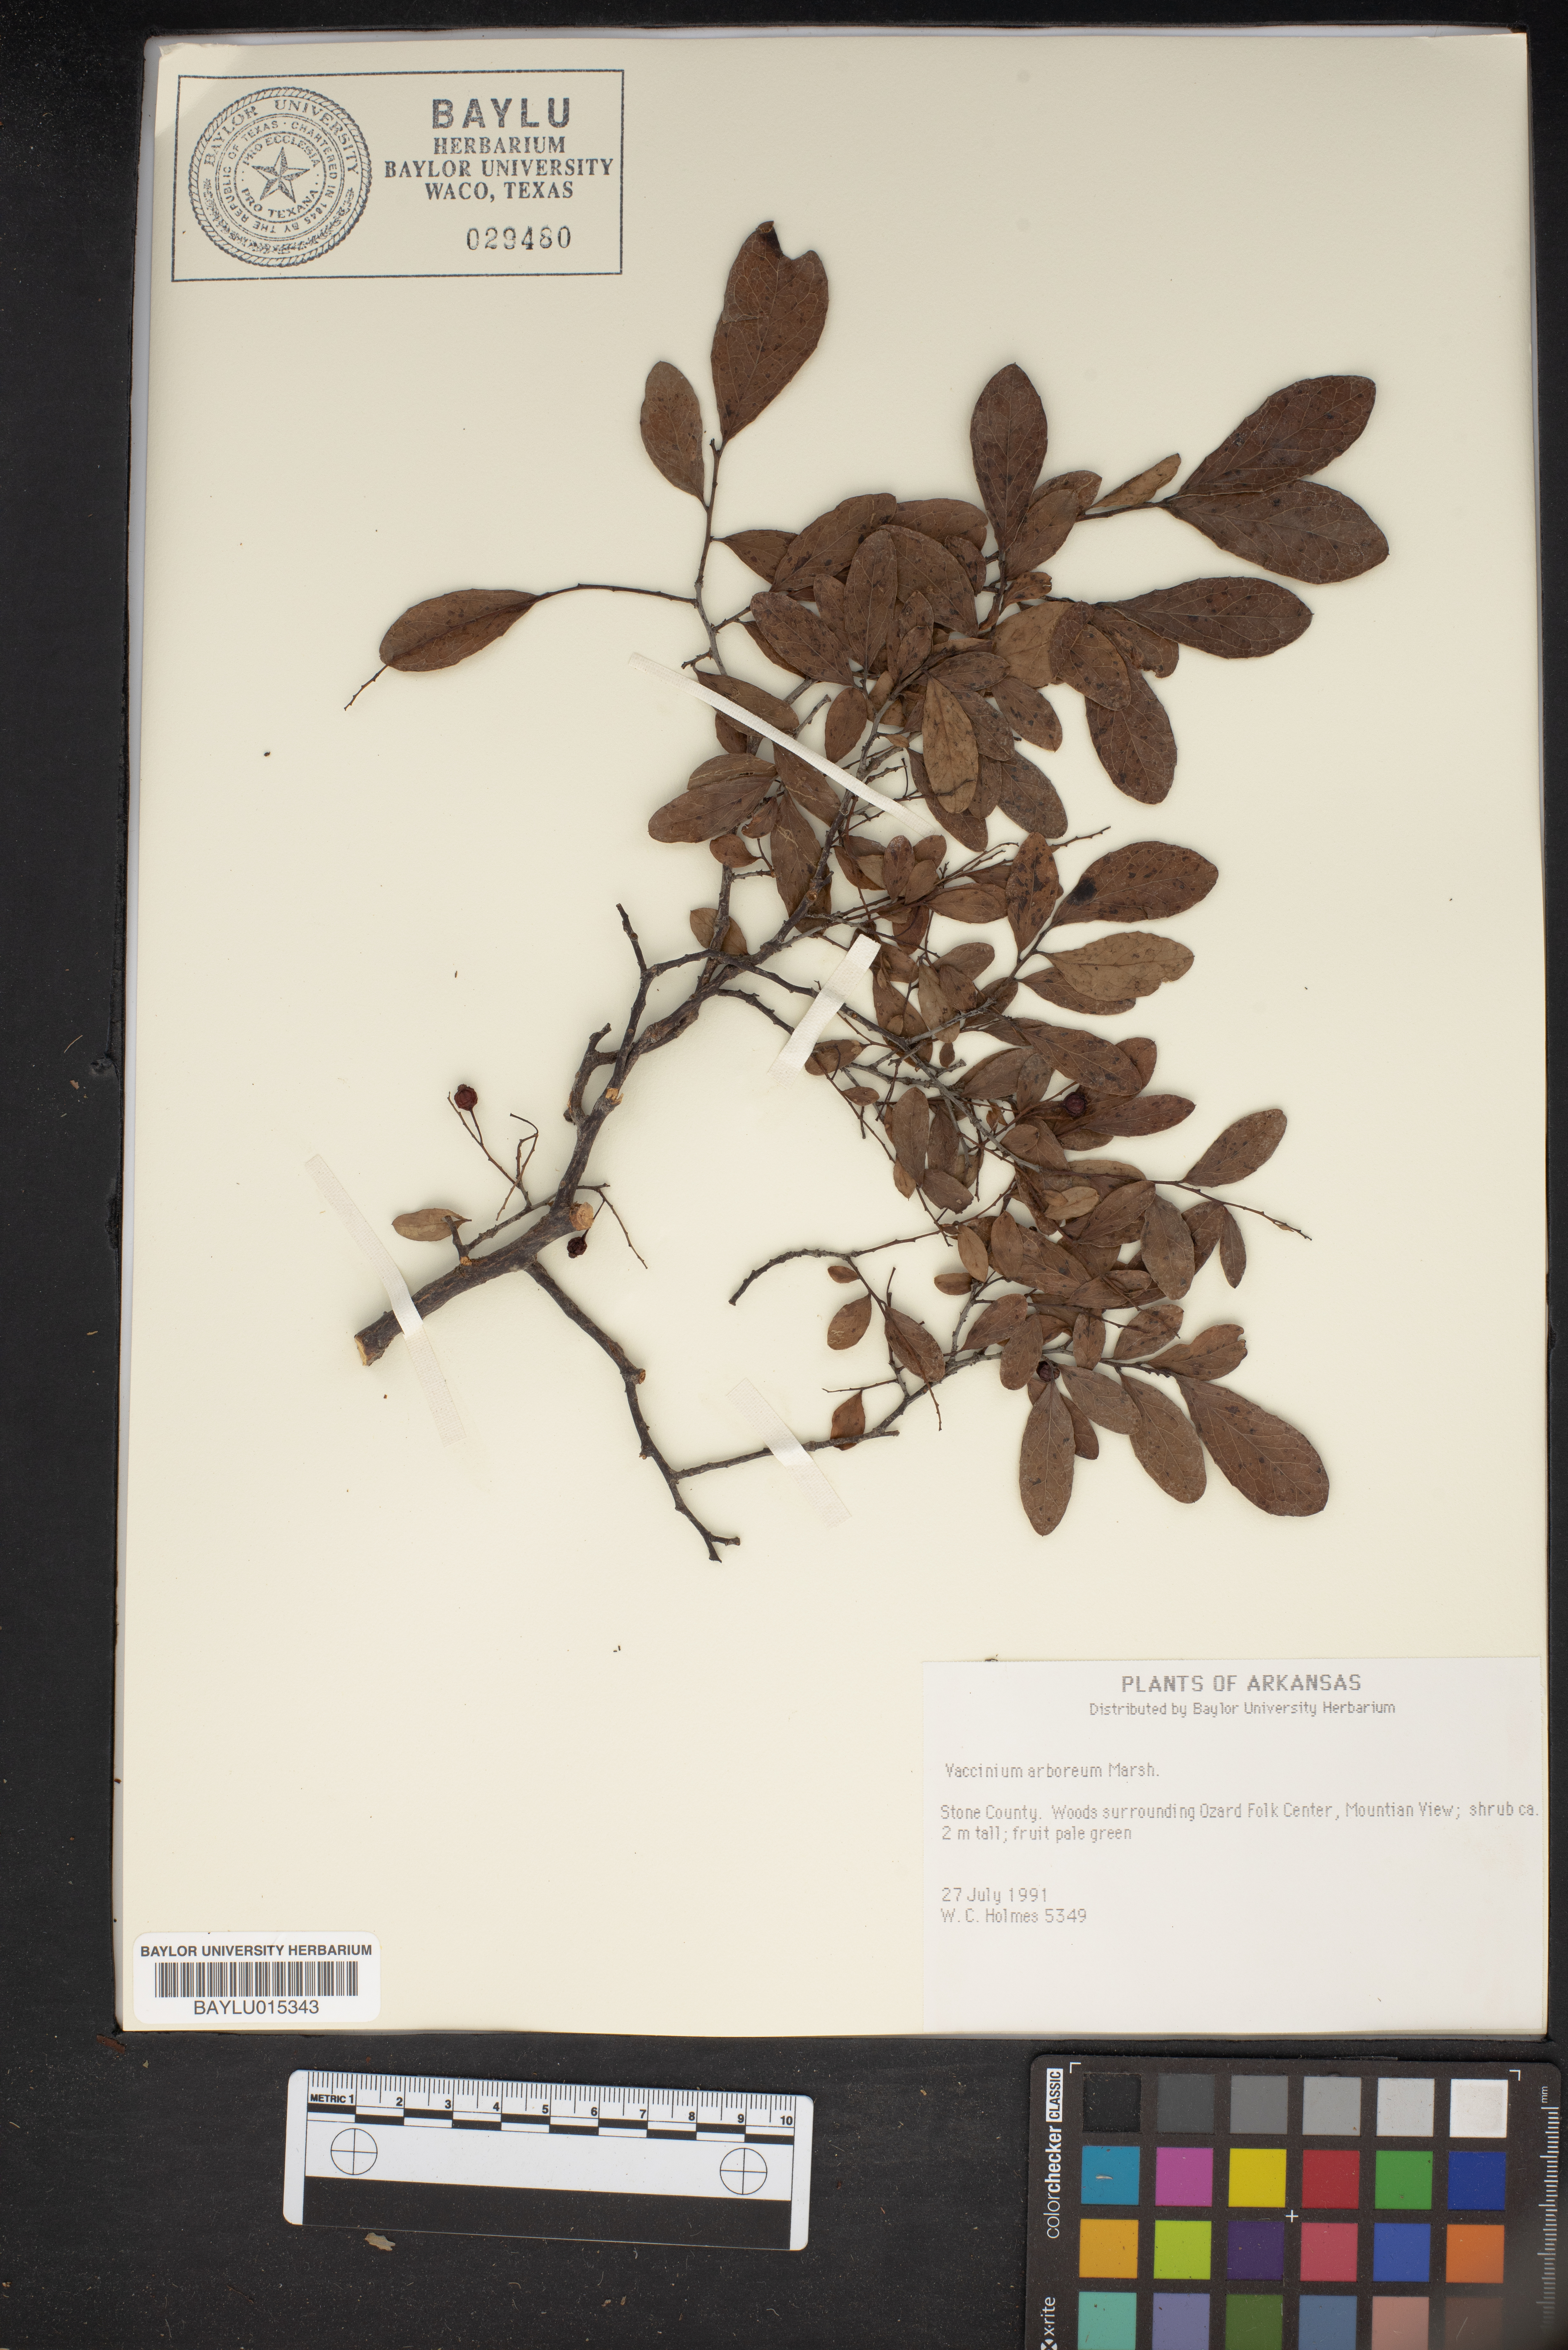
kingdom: Plantae
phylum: Tracheophyta
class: Magnoliopsida
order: Ericales
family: Ericaceae
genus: Vaccinium
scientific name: Vaccinium arboreum
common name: Farkleberry
